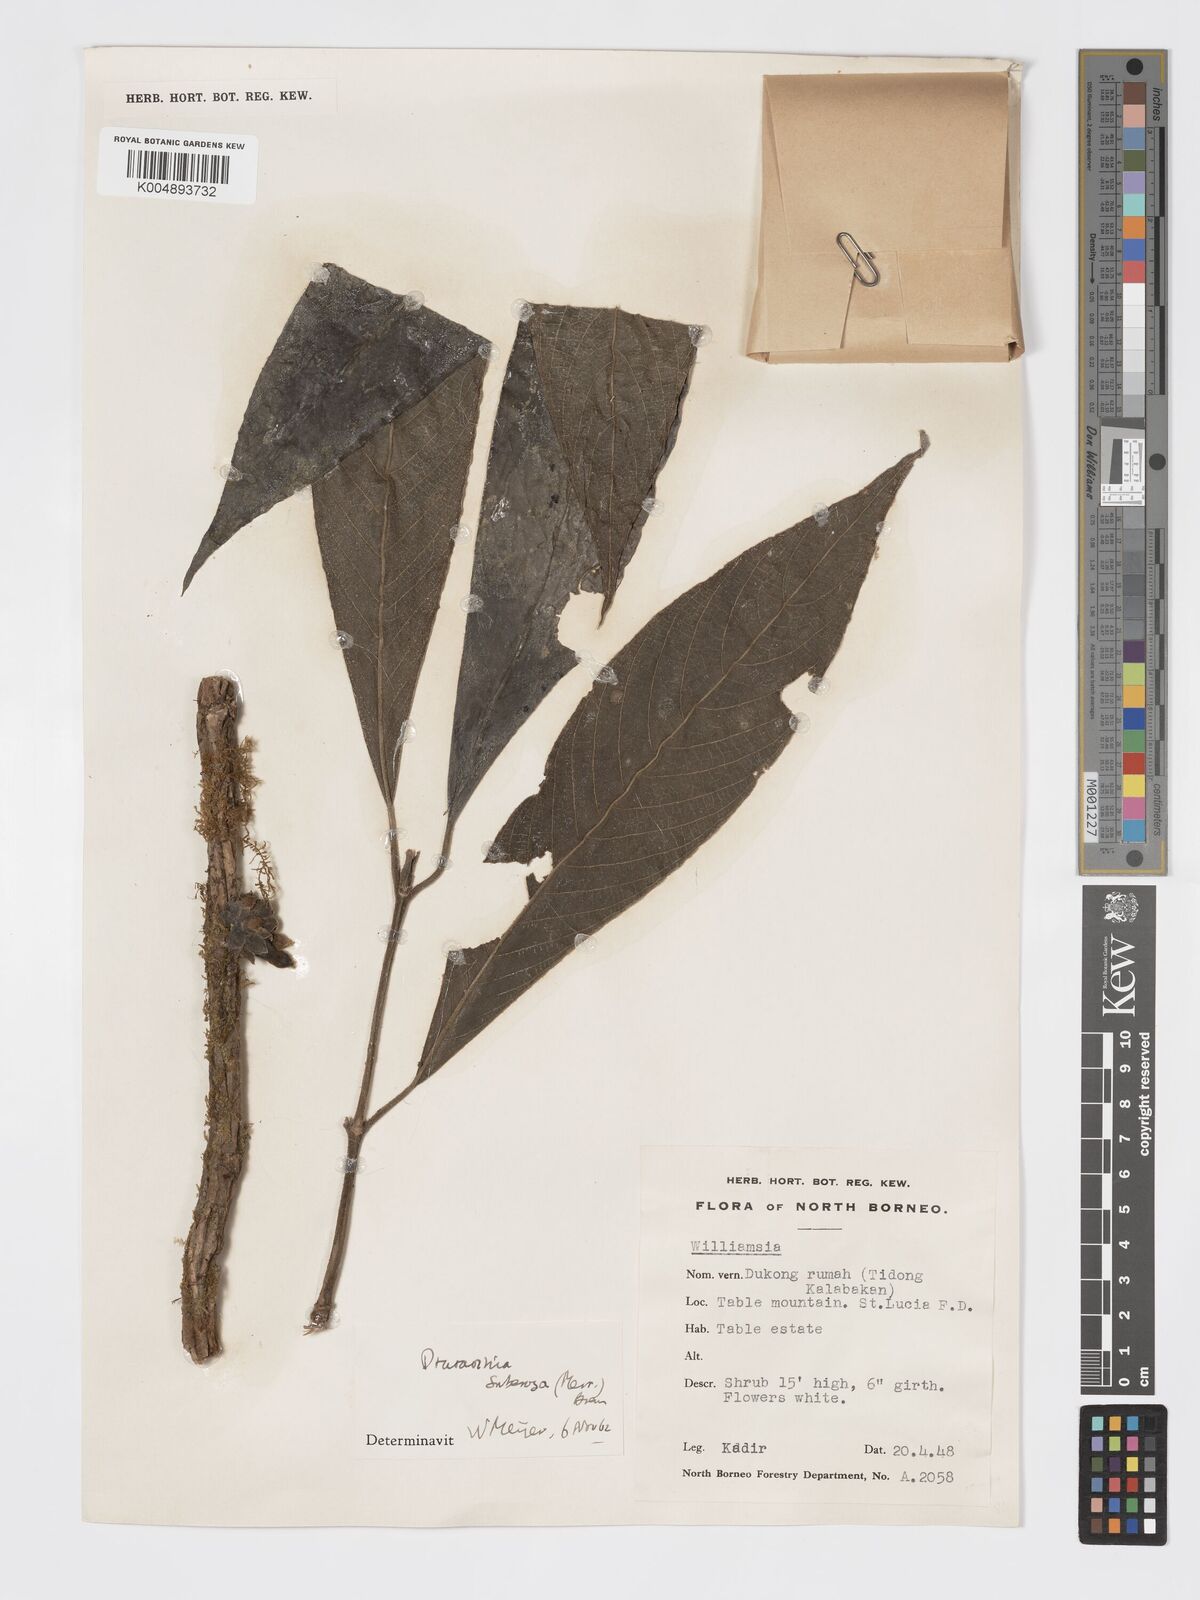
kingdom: Plantae
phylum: Tracheophyta
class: Magnoliopsida
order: Gentianales
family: Rubiaceae
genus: Praravinia
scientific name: Praravinia suberosa
